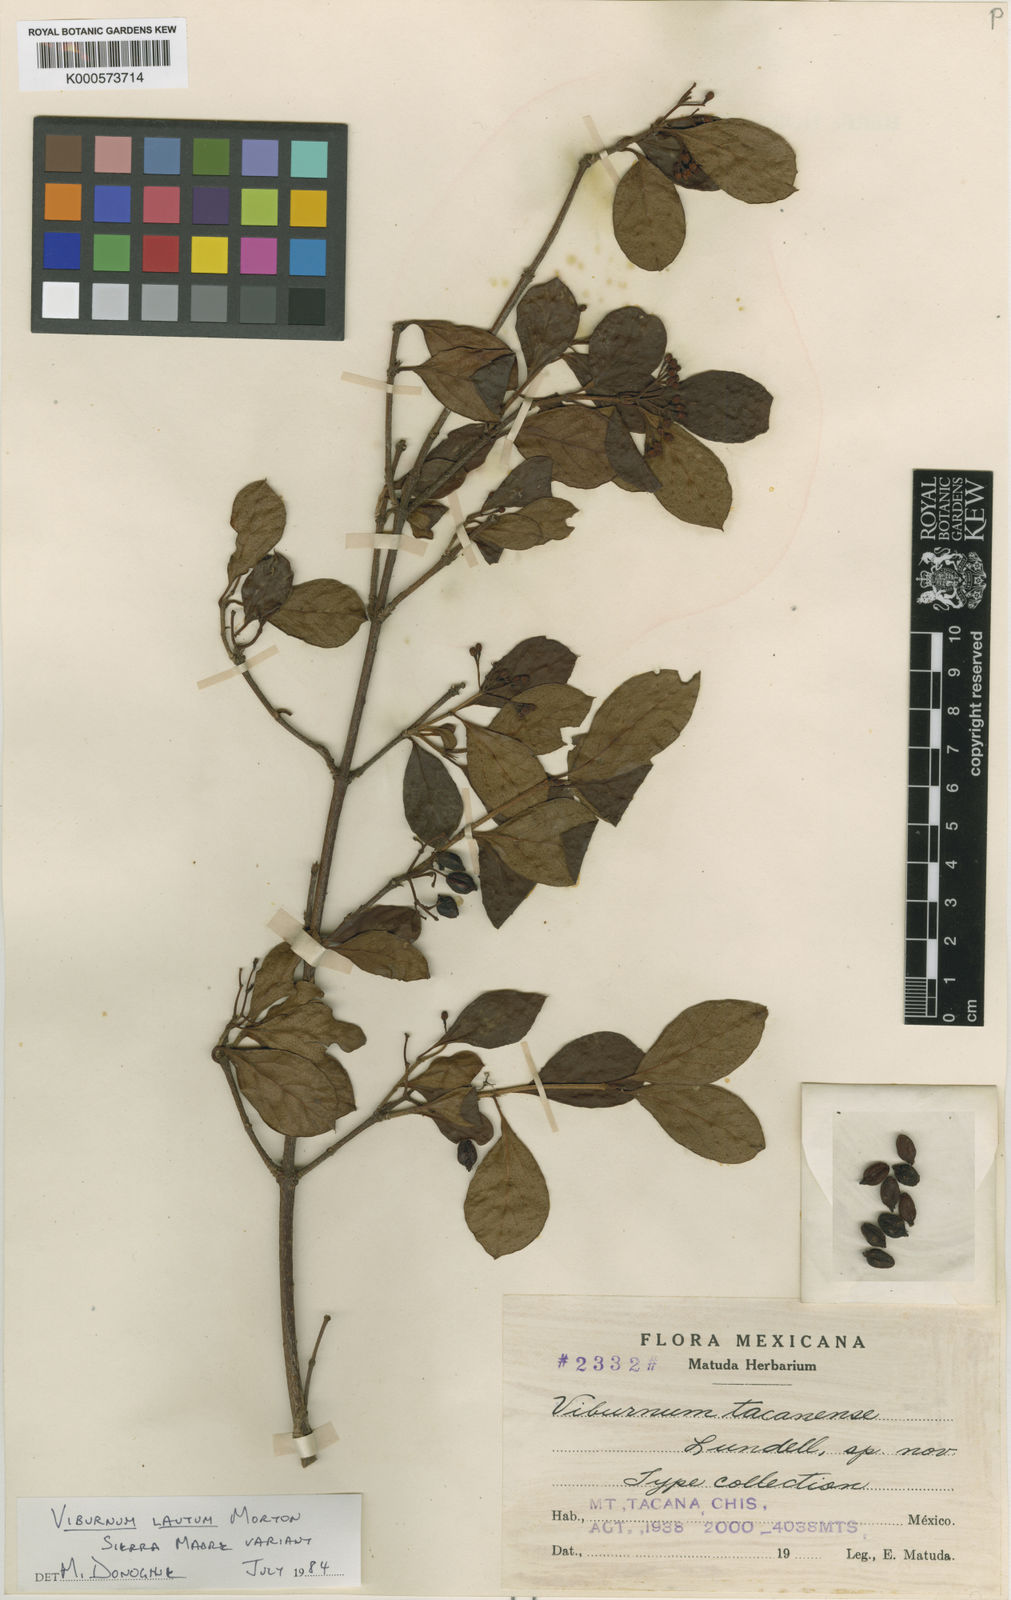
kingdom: Plantae
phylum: Tracheophyta
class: Magnoliopsida
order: Dipsacales
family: Viburnaceae
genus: Viburnum
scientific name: Viburnum lautum
